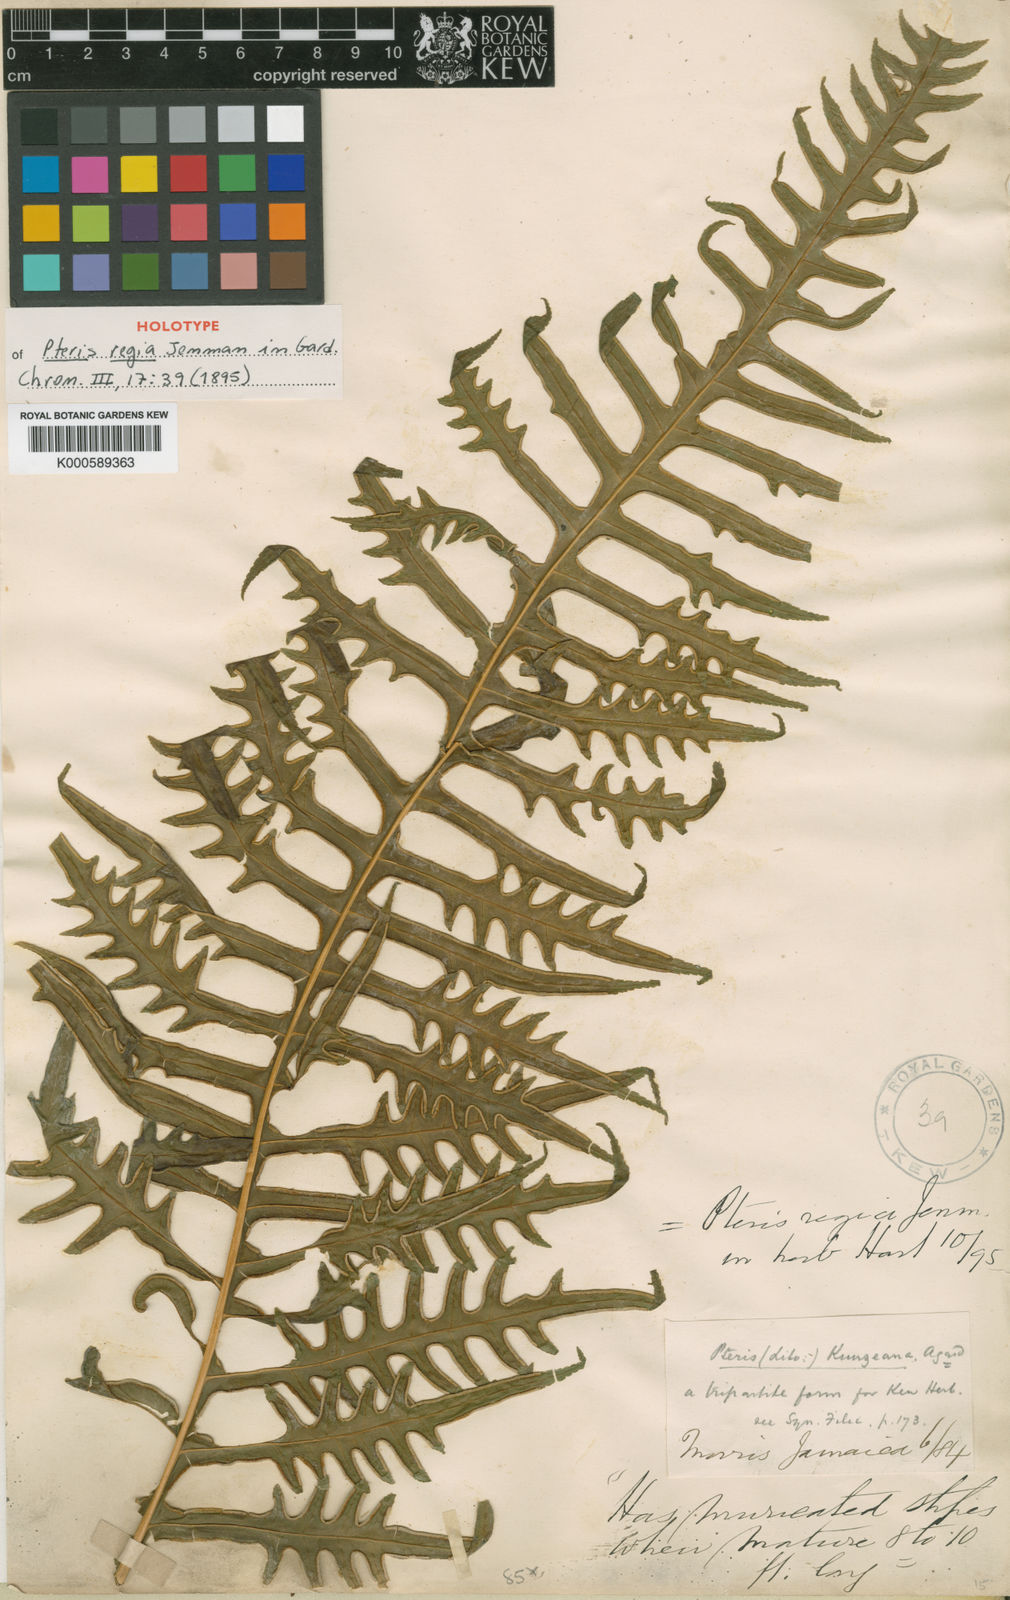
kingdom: Plantae
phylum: Tracheophyta
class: Polypodiopsida
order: Polypodiales
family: Pteridaceae
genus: Pteris
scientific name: Pteris arborea
